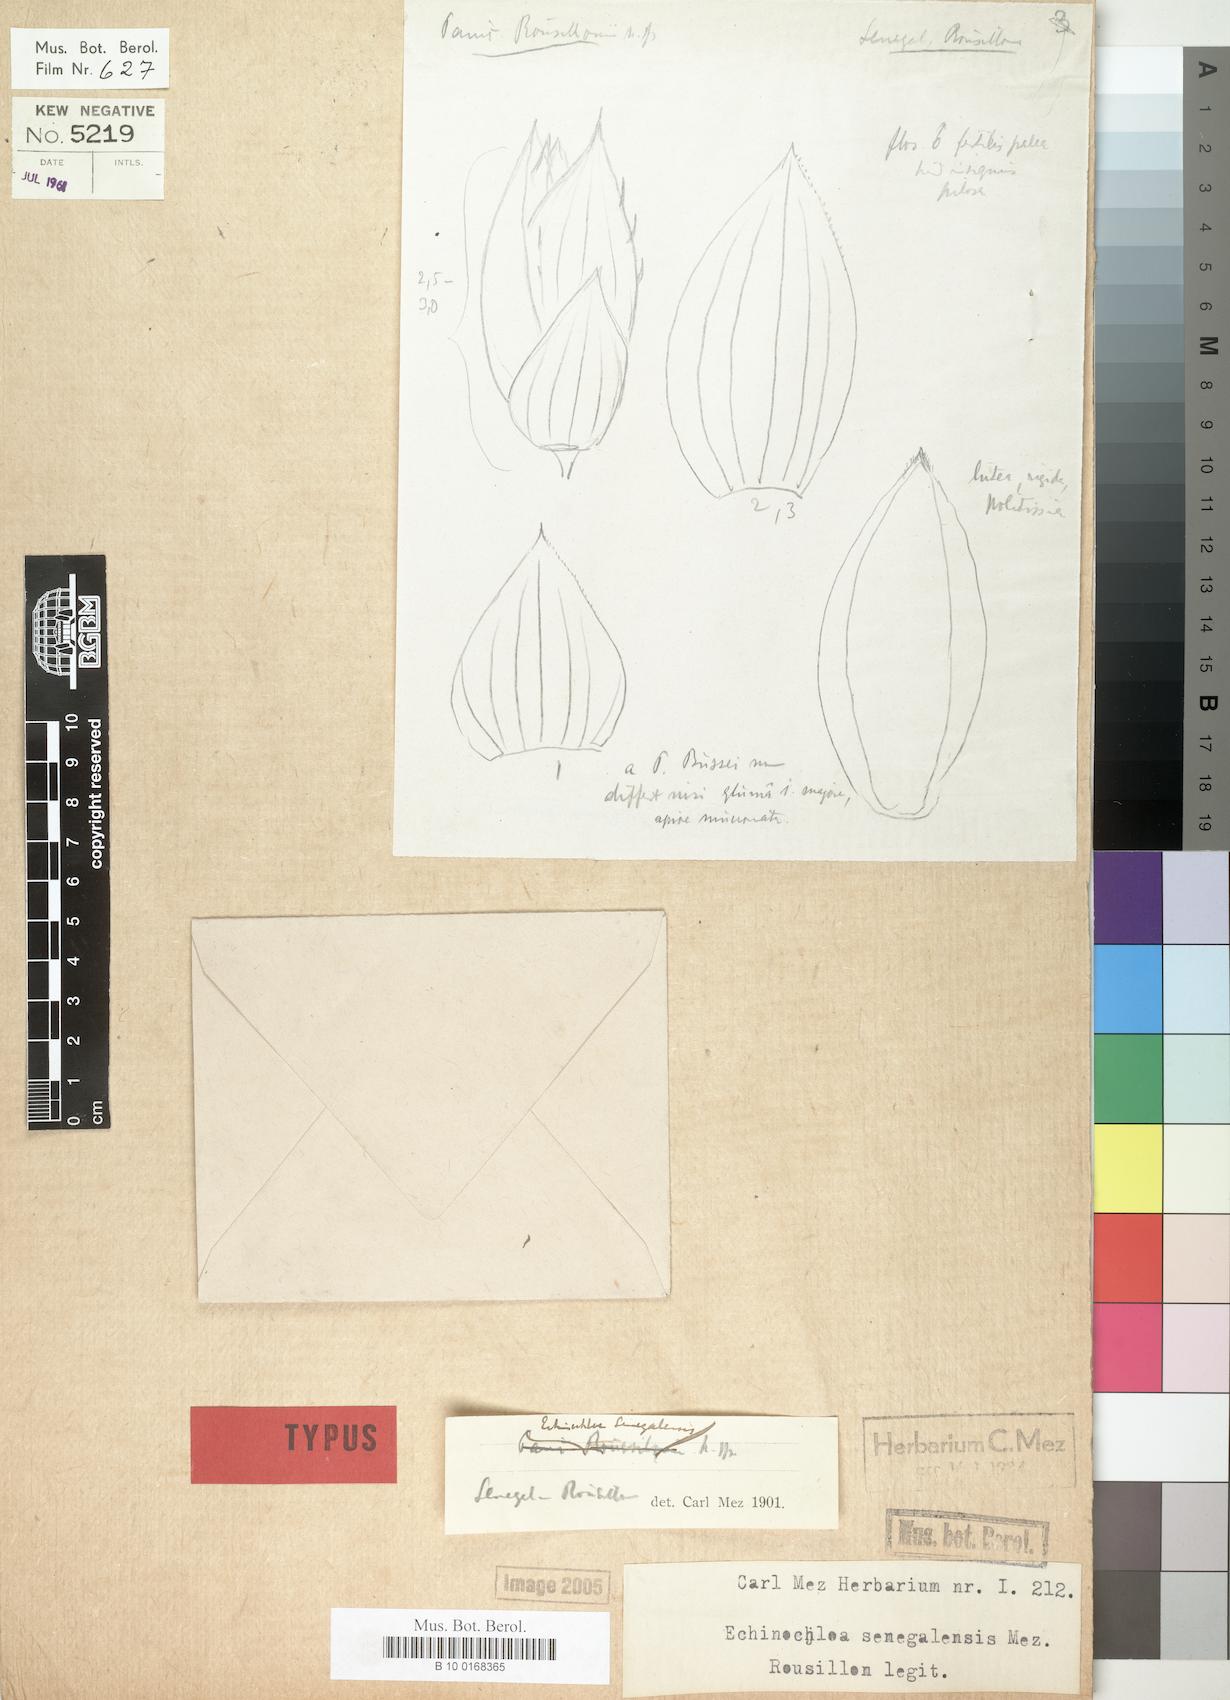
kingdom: Plantae
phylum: Tracheophyta
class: Liliopsida
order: Poales
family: Poaceae
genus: Echinochloa
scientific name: Echinochloa pyramidalis
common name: Antelope grass
